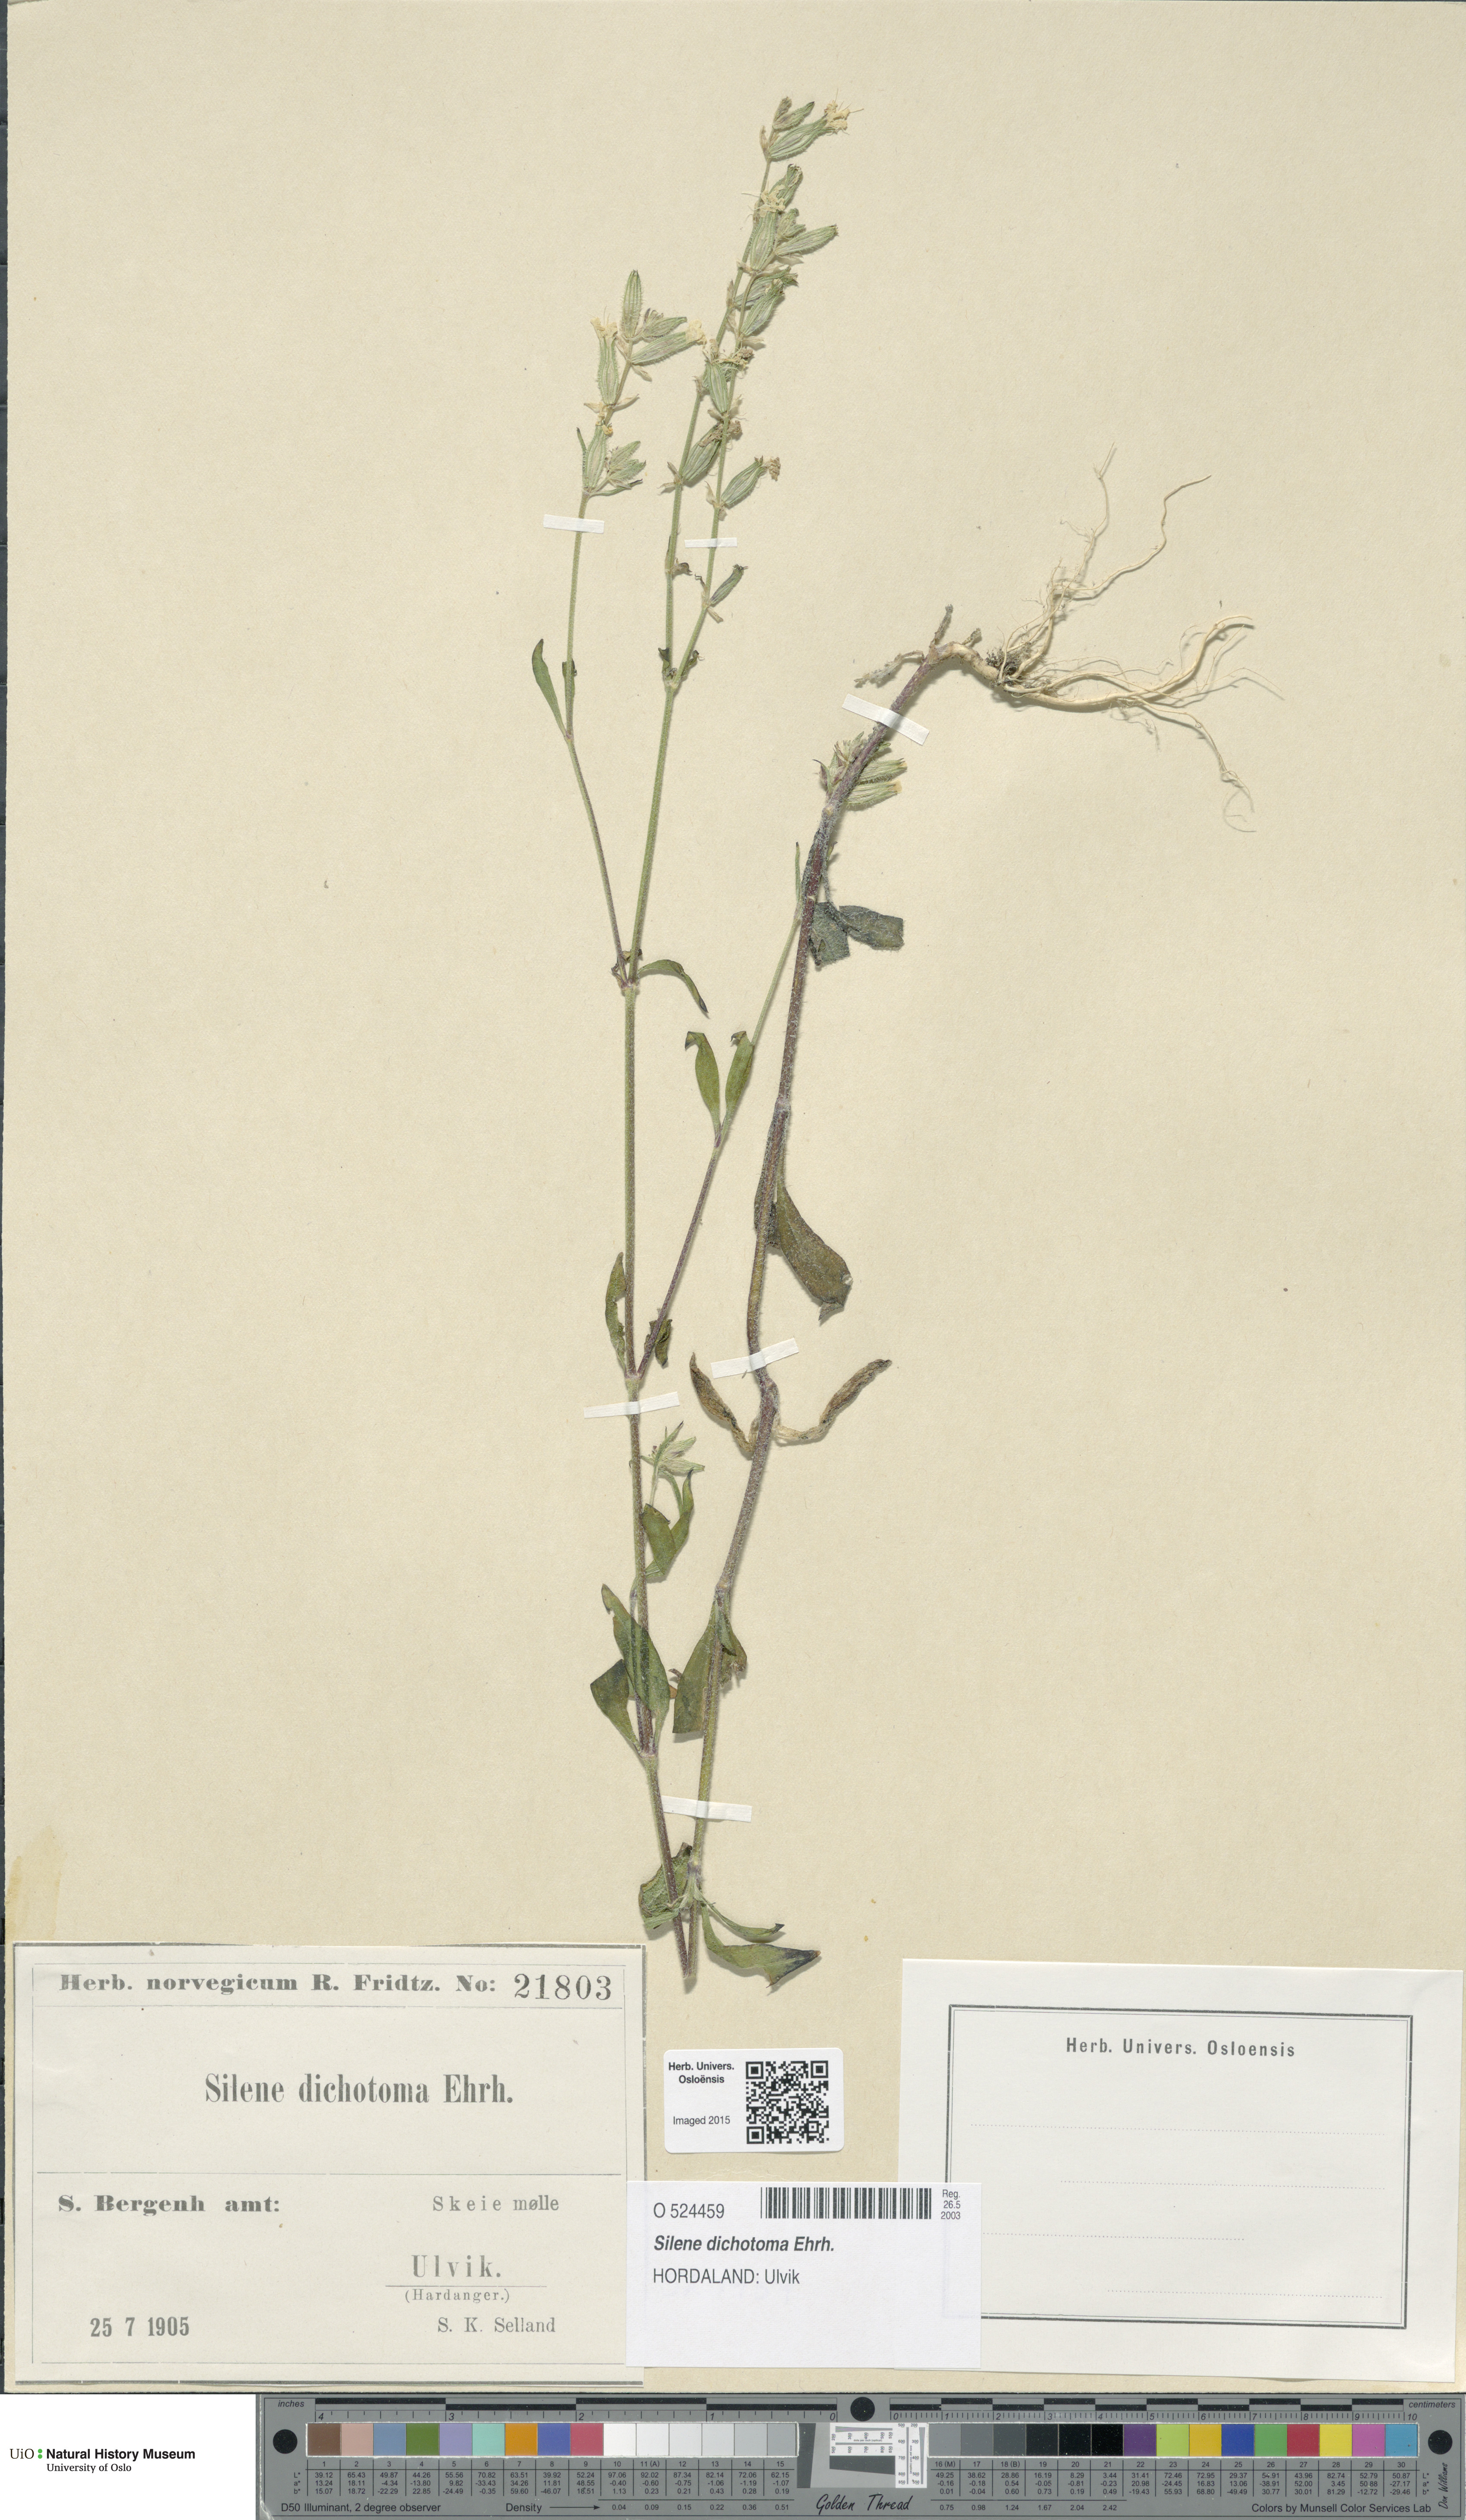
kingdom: Plantae
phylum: Tracheophyta
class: Magnoliopsida
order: Caryophyllales
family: Caryophyllaceae
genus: Silene
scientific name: Silene dichotoma
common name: Forked catchfly
